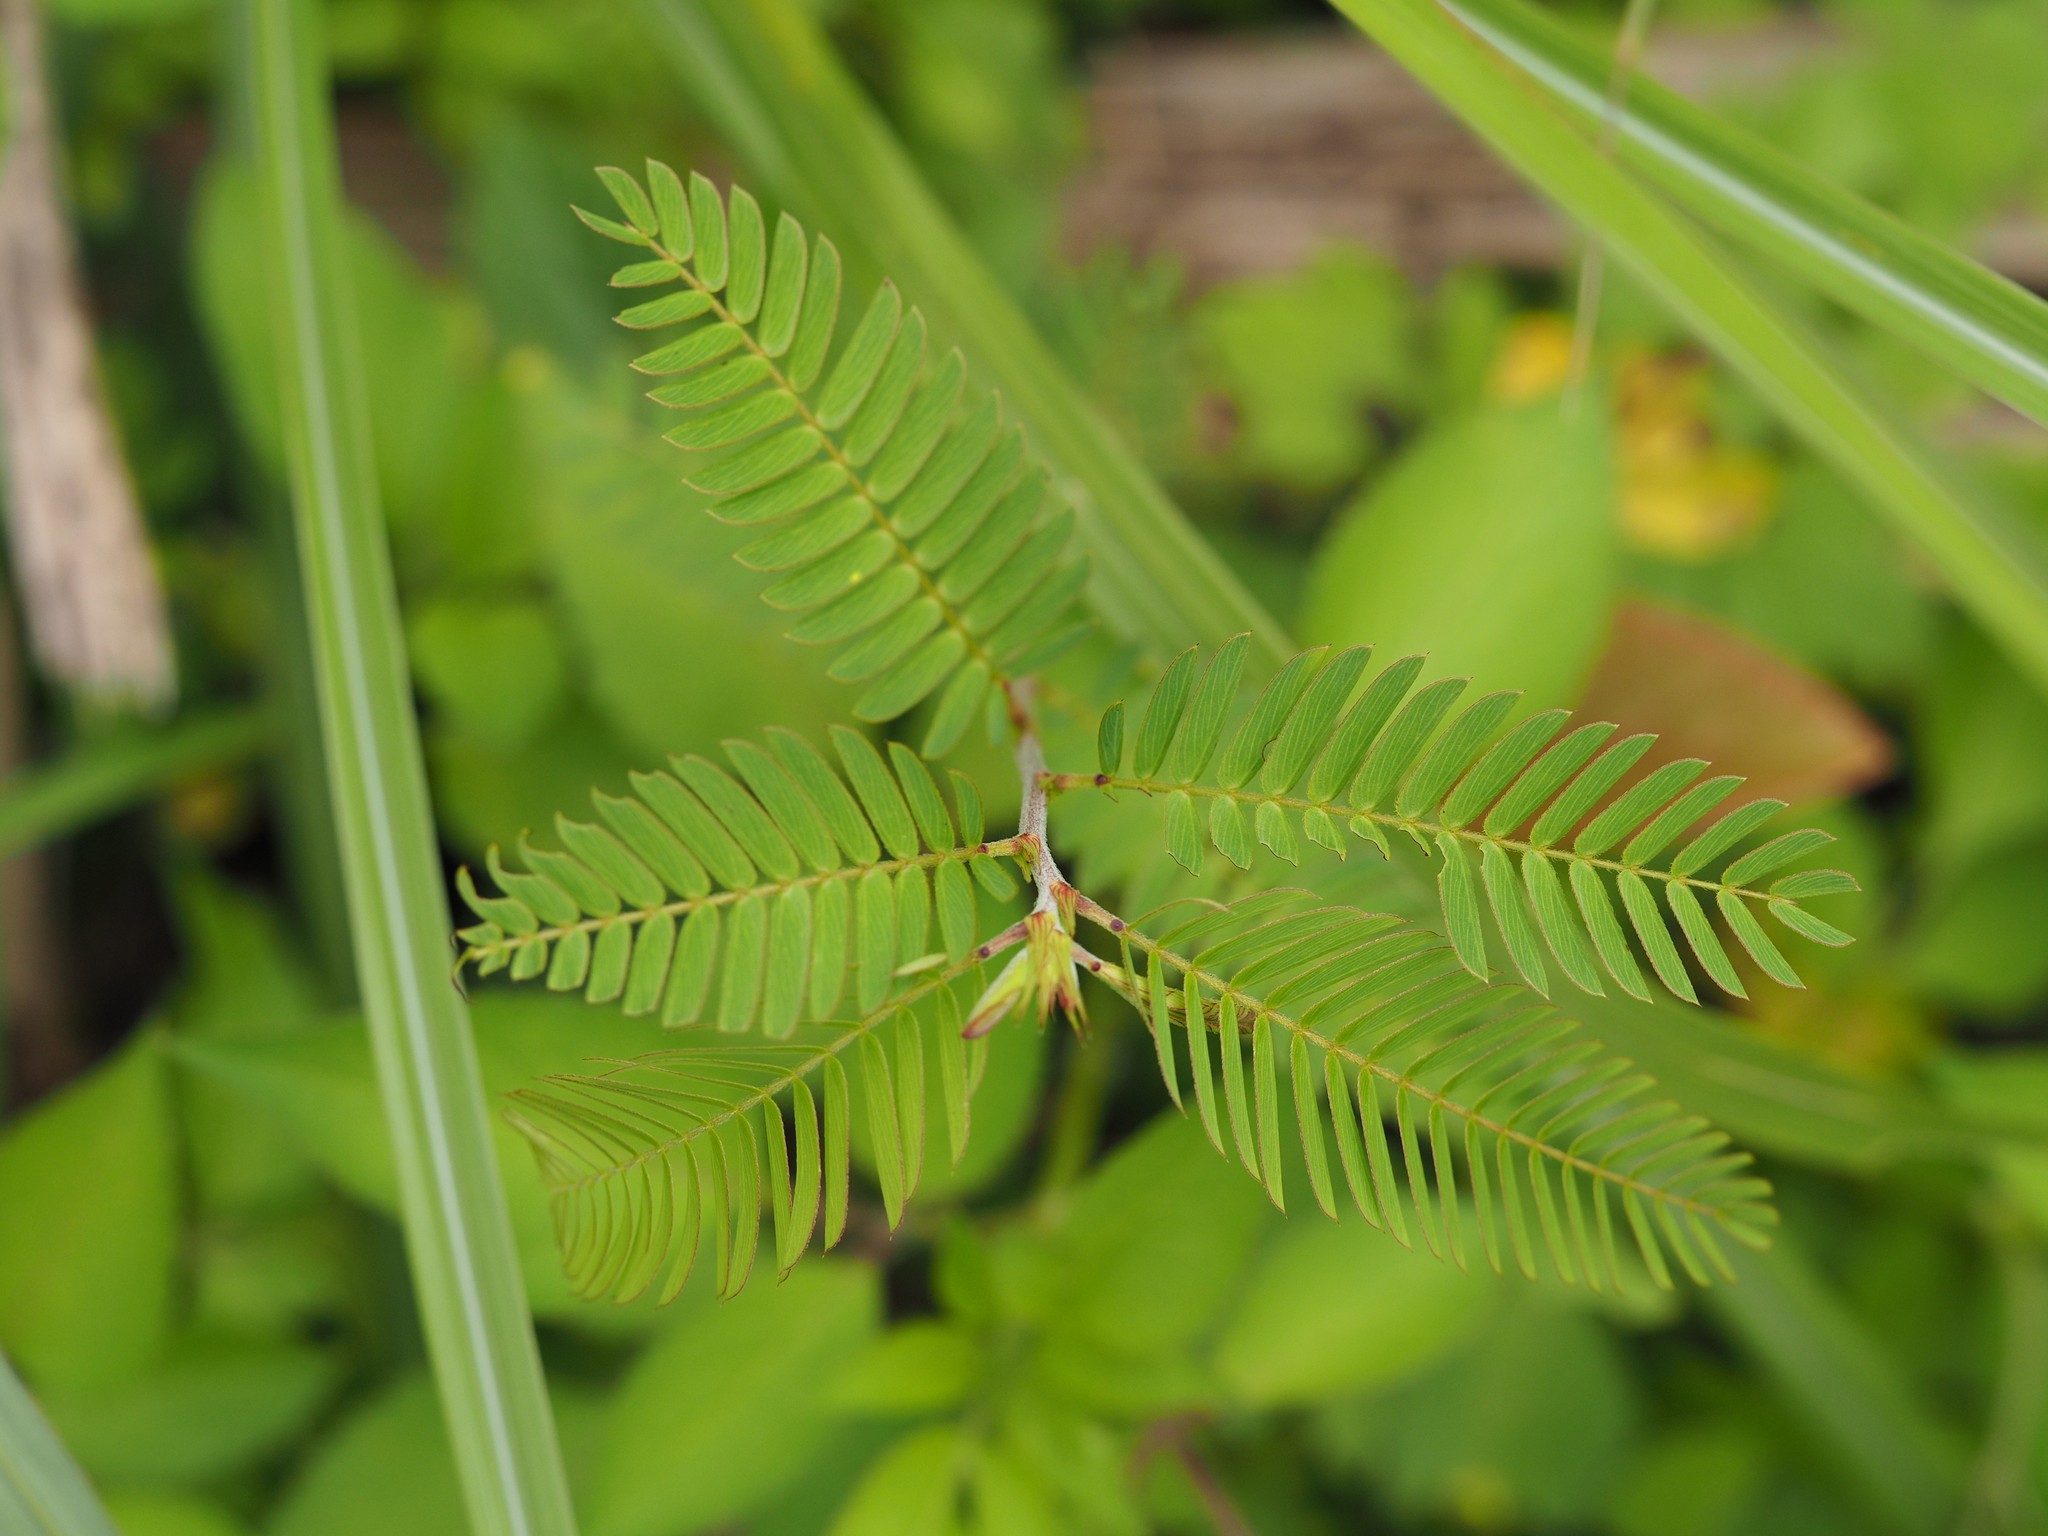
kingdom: Plantae
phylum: Tracheophyta
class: Magnoliopsida
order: Fabales
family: Fabaceae
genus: Chamaecrista
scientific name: Chamaecrista nictitans
